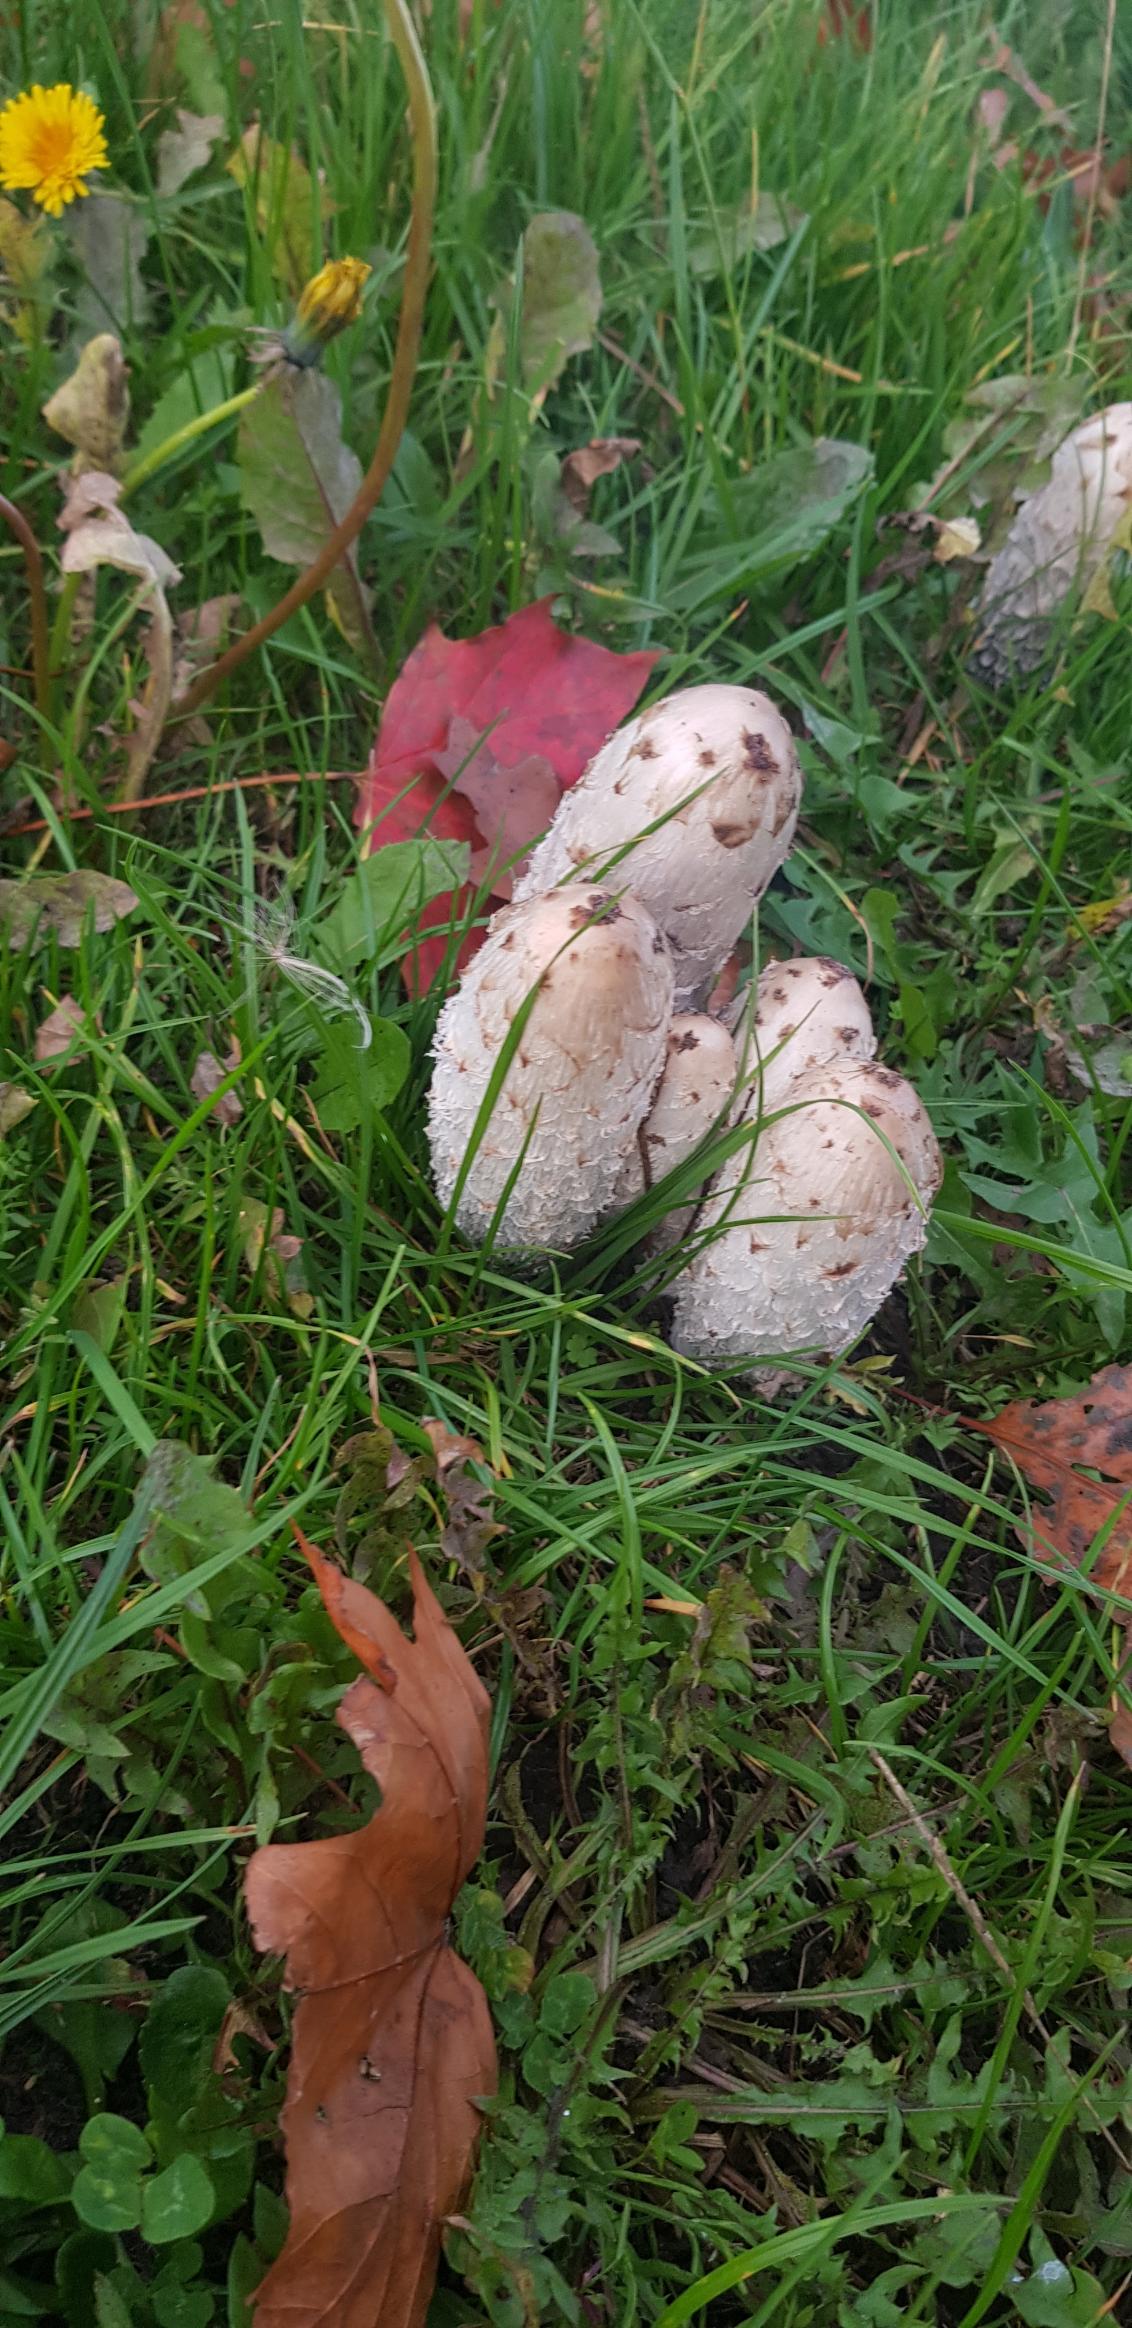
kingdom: Fungi
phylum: Basidiomycota
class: Agaricomycetes
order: Agaricales
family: Agaricaceae
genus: Coprinus
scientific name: Coprinus comatus
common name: Stor parykhat
